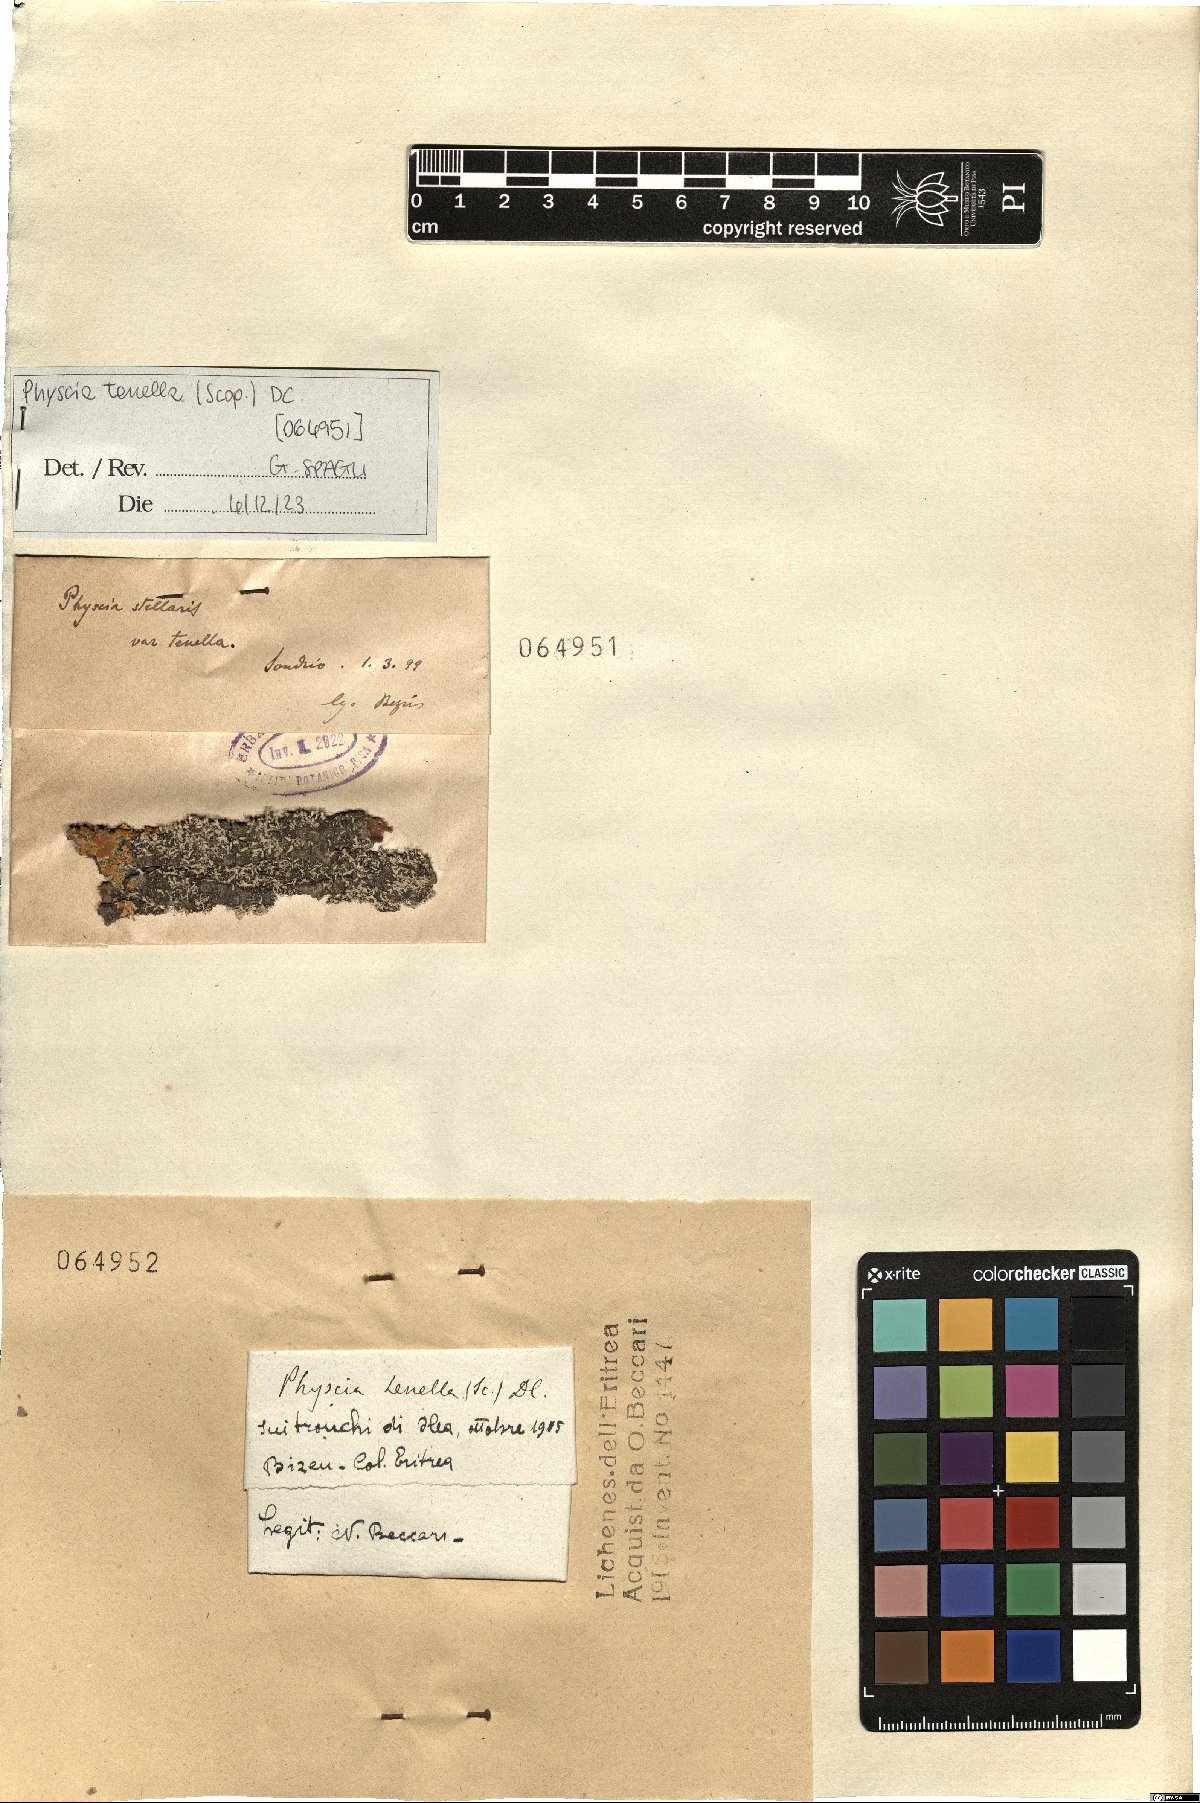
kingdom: Fungi
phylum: Ascomycota
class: Lecanoromycetes
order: Caliciales
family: Physciaceae
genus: Physcia
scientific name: Physcia tenella
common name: Fringed rosette lichen
